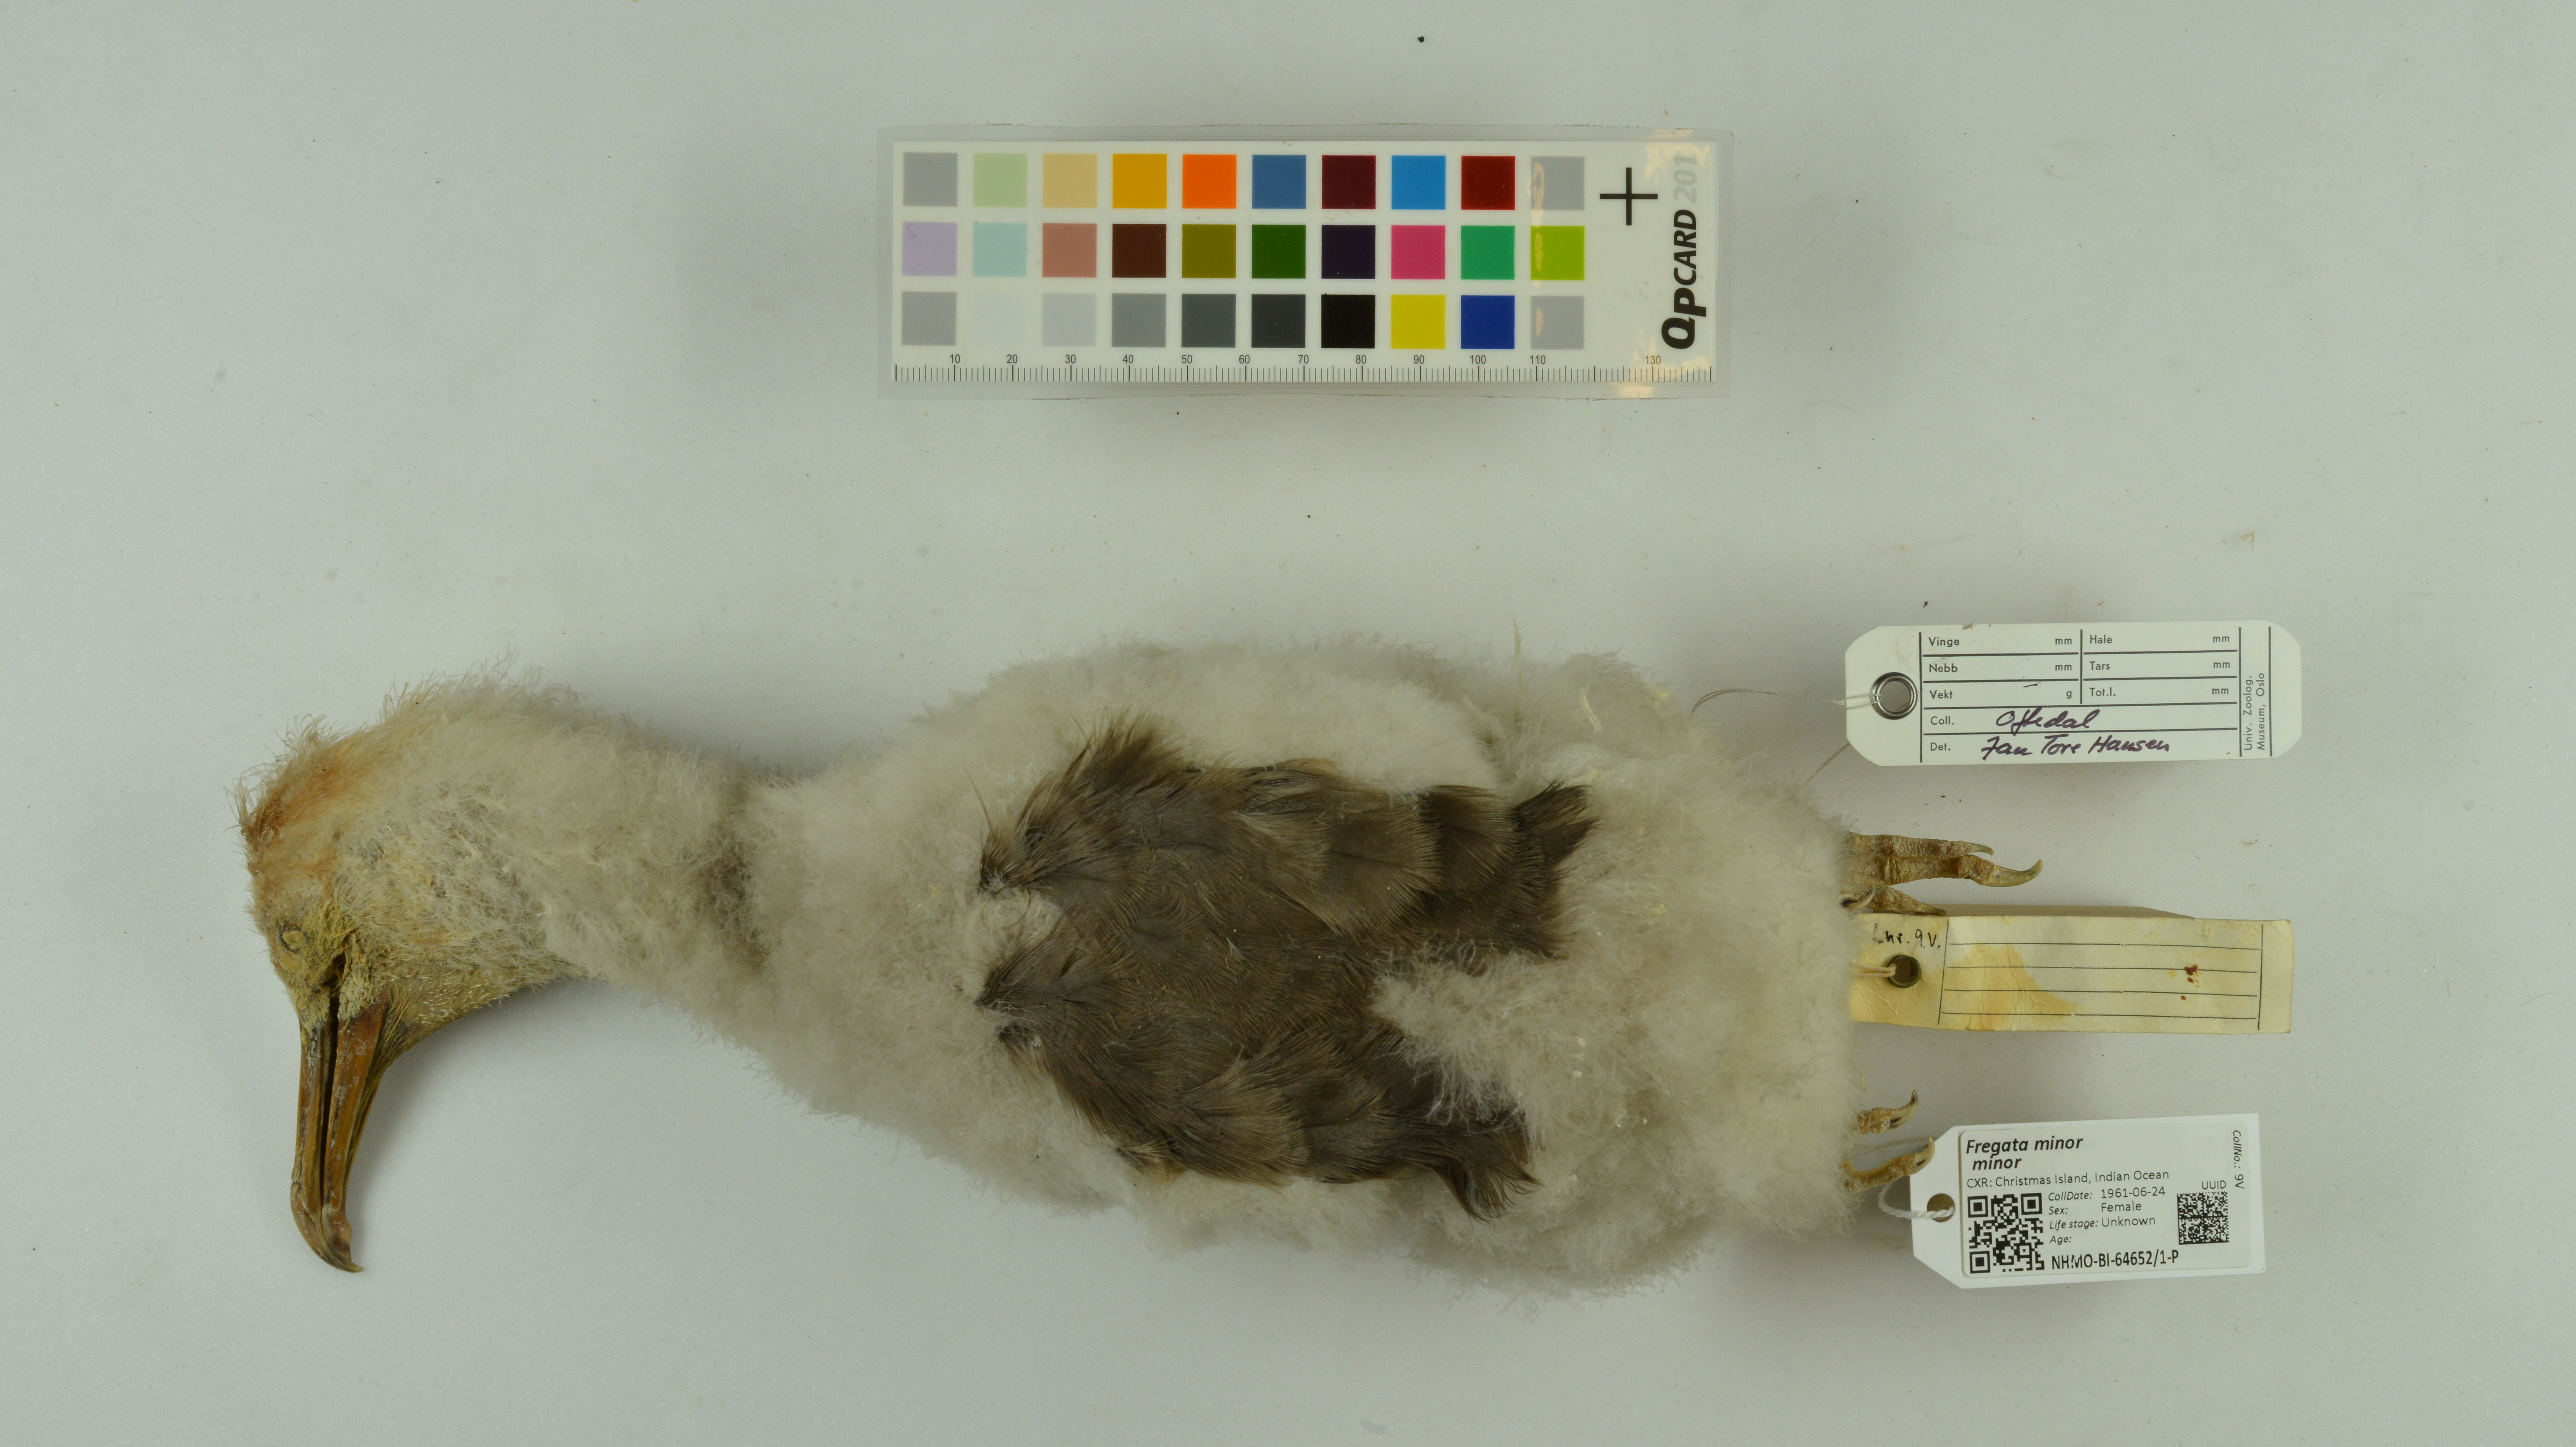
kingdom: Animalia
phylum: Chordata
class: Aves
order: Suliformes
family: Fregatidae
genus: Fregata
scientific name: Fregata minor
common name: Great frigatebird
